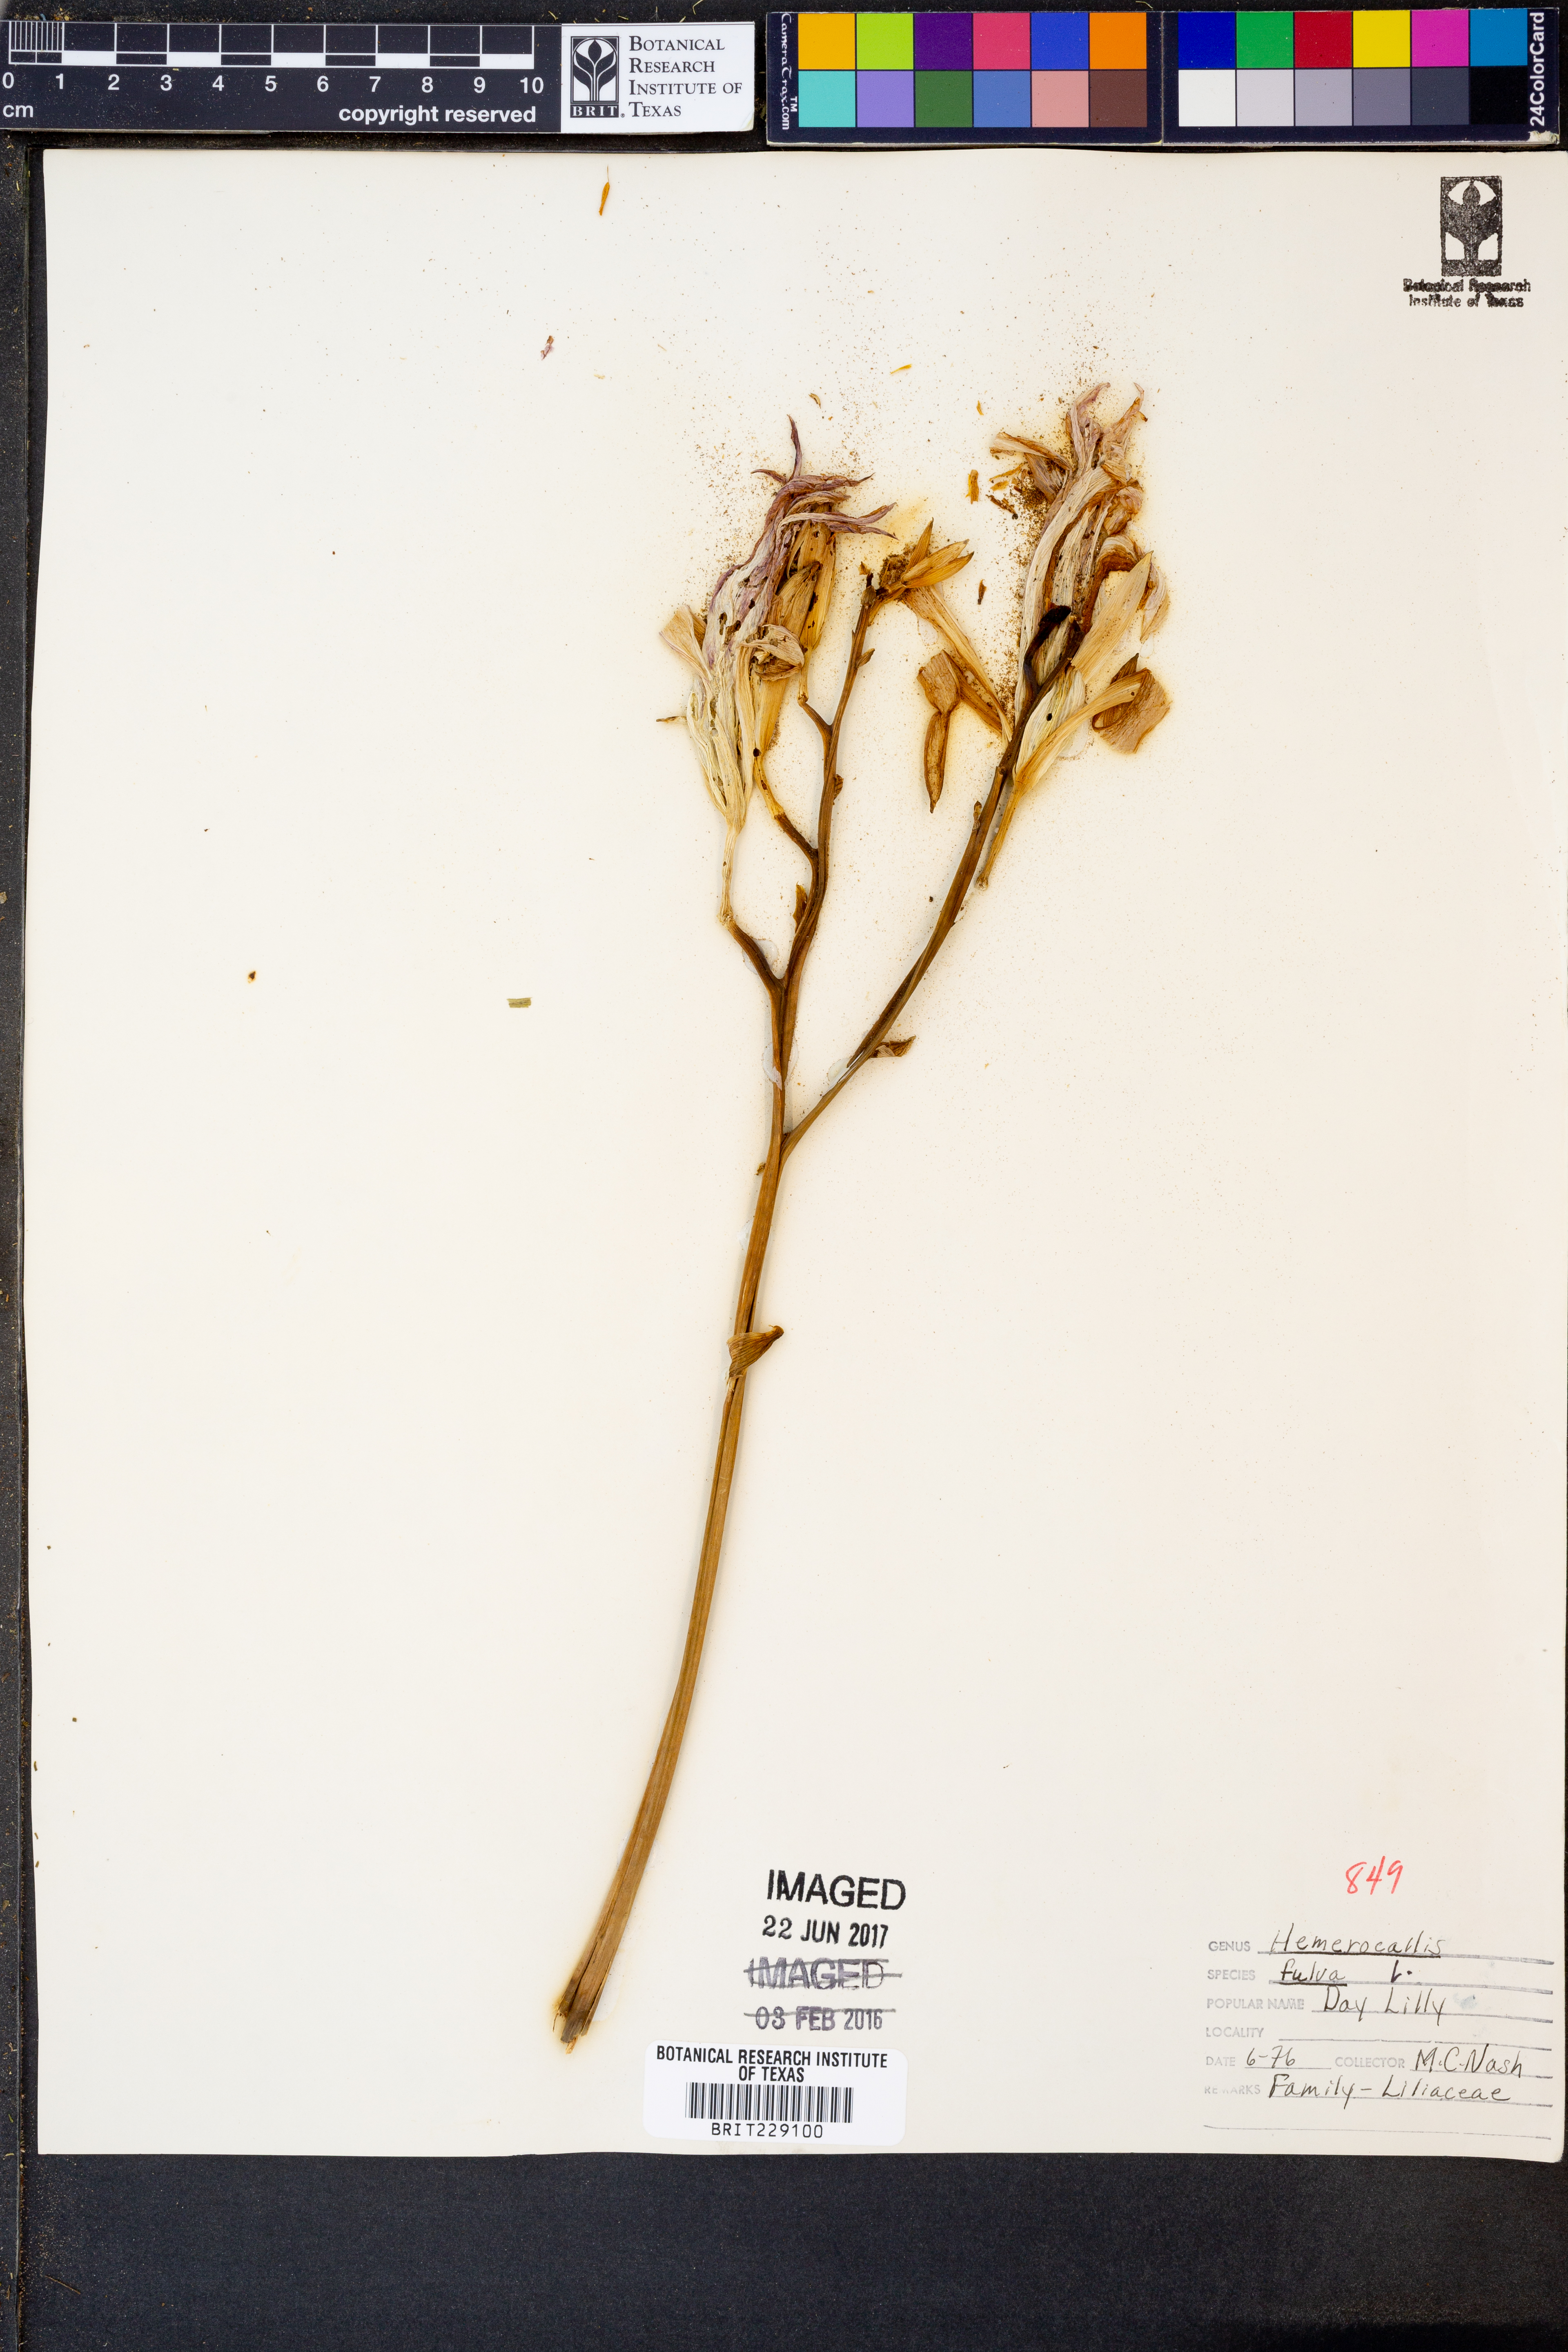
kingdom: Plantae
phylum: Tracheophyta
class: Liliopsida
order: Asparagales
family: Asphodelaceae
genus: Hemerocallis
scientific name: Hemerocallis fulva
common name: Orange day-lily
